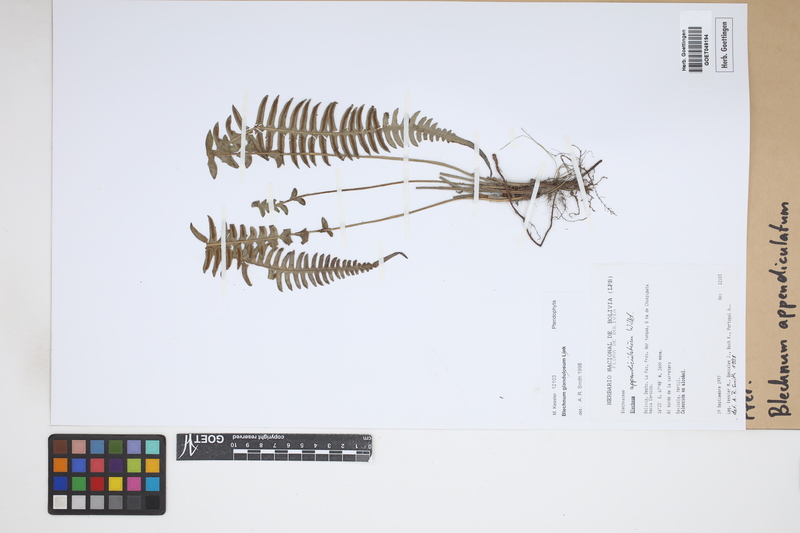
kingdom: Plantae
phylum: Tracheophyta
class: Polypodiopsida
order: Polypodiales
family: Blechnaceae
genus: Blechnum
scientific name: Blechnum appendiculatum
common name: Palm fern
